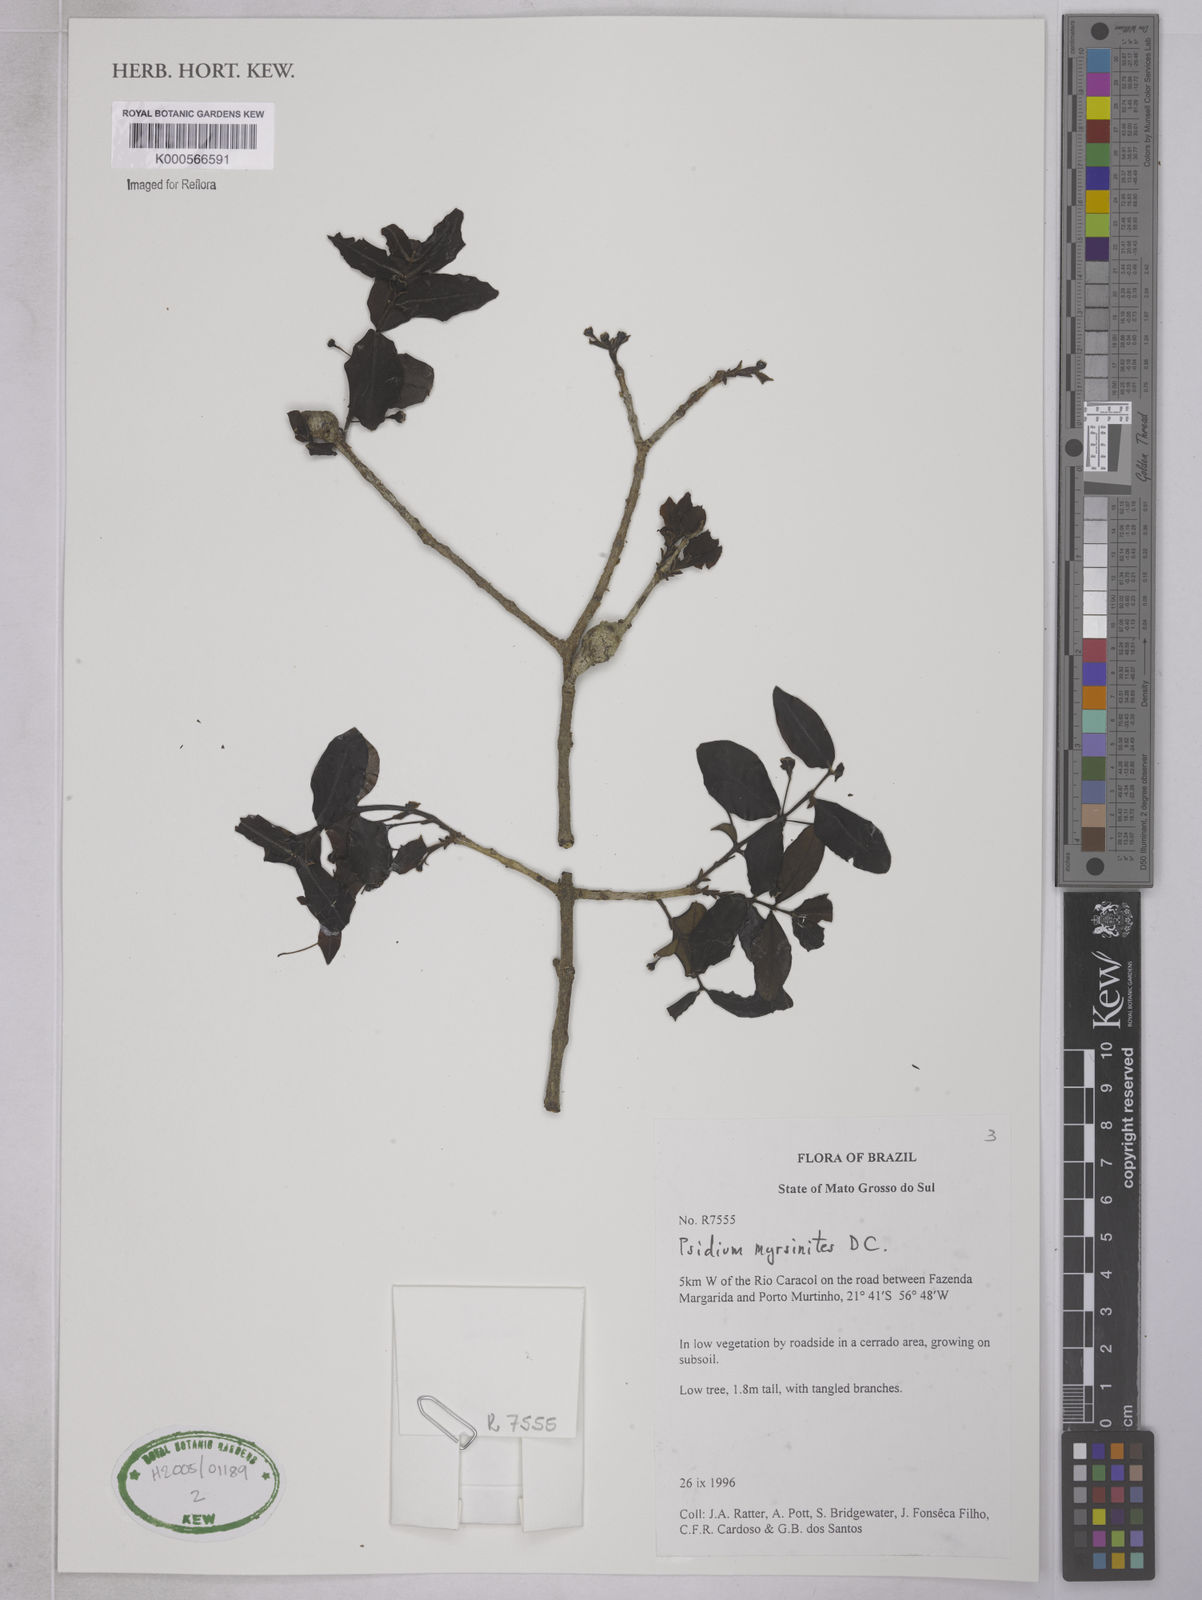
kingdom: Plantae
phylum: Tracheophyta
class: Magnoliopsida
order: Myrtales
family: Myrtaceae
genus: Psidium
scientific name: Psidium myrsinites
